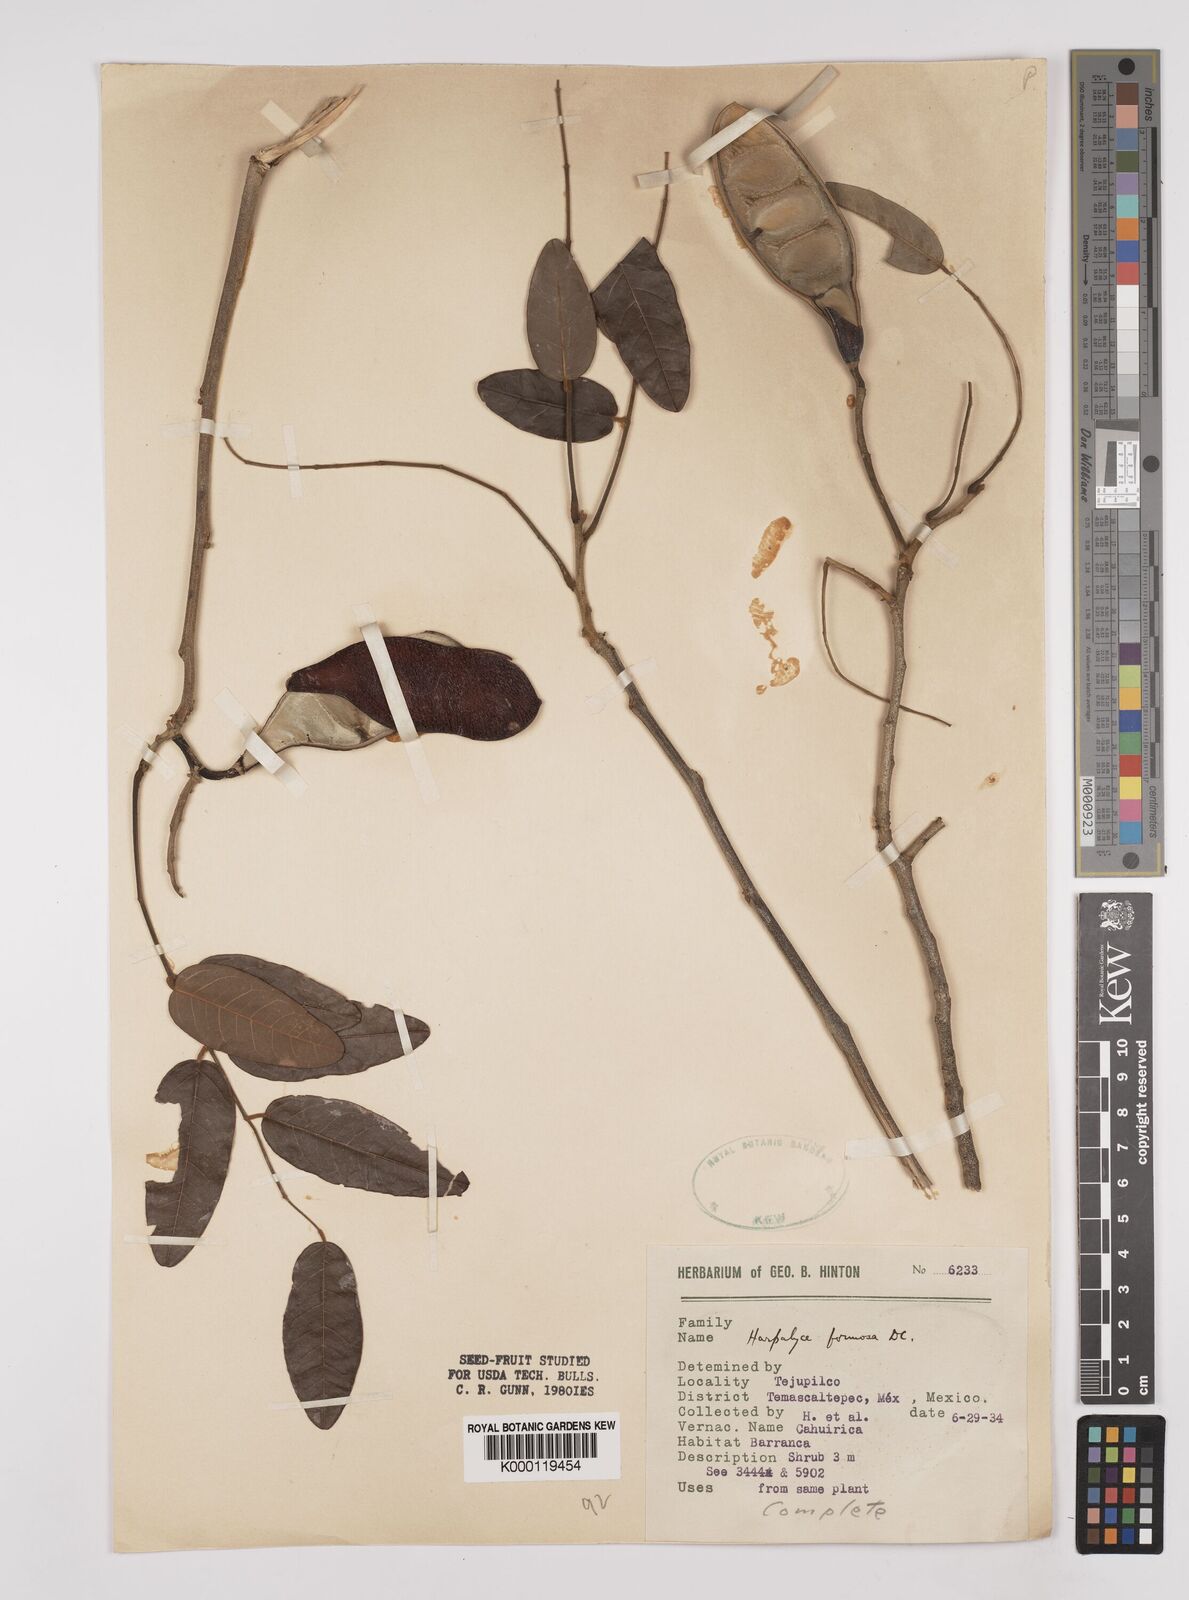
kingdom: Plantae
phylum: Tracheophyta
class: Magnoliopsida
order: Fabales
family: Fabaceae
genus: Harpalyce
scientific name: Harpalyce formosa
